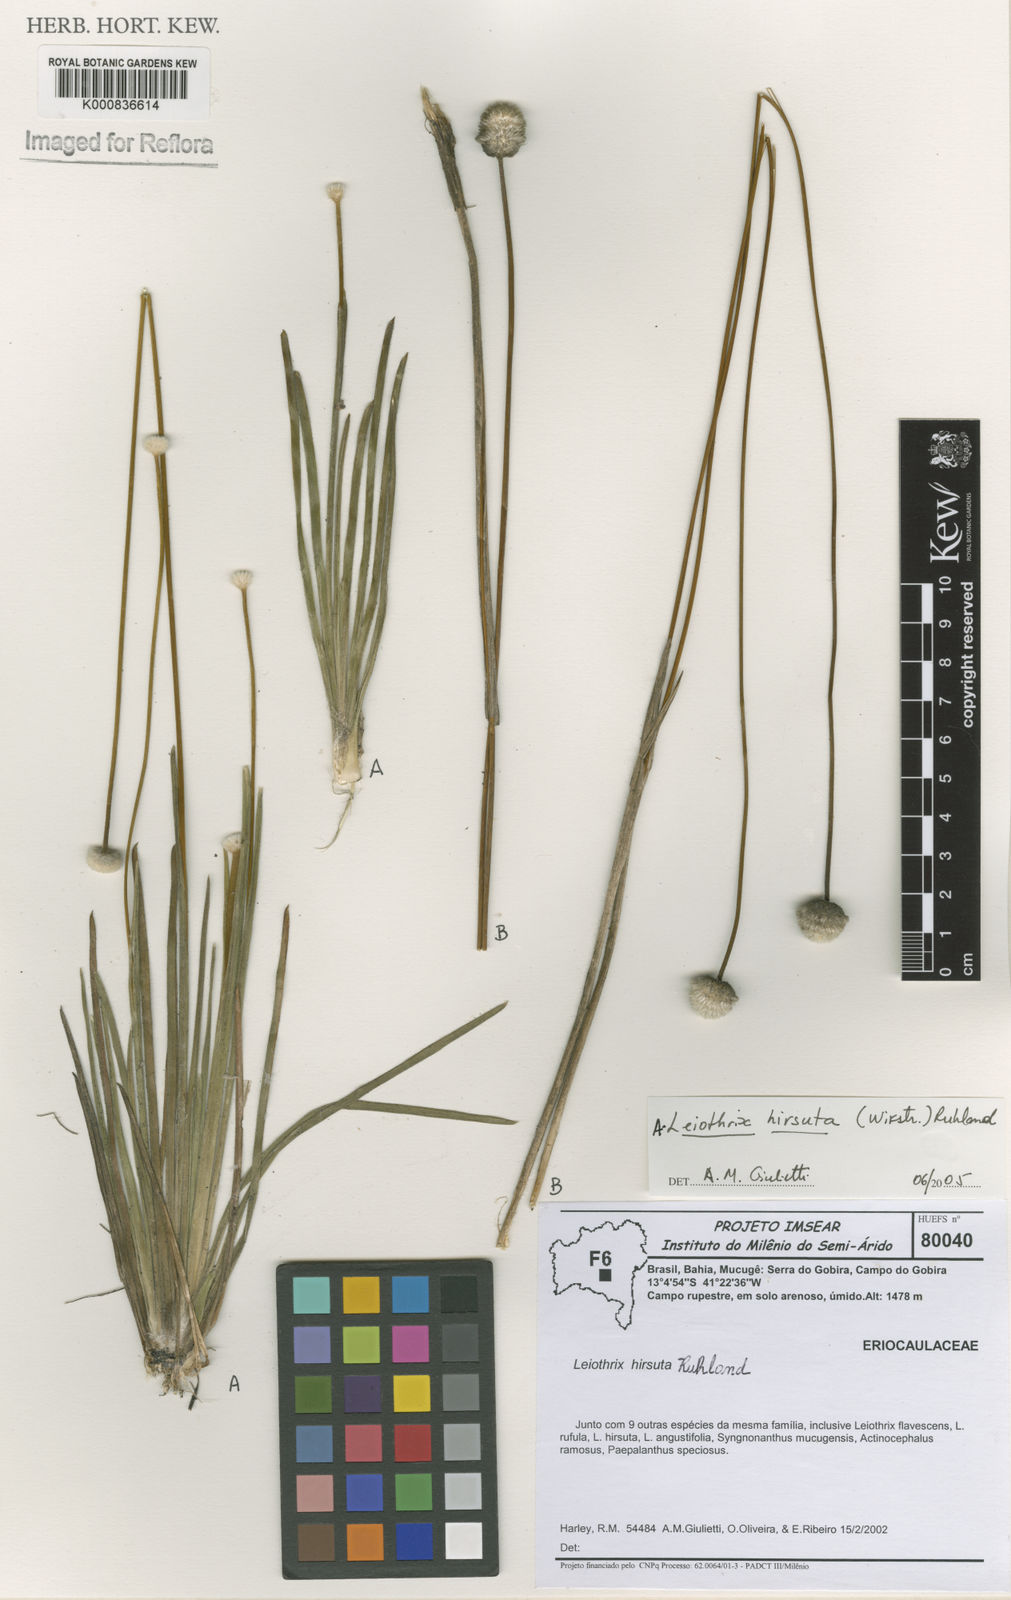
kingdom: Plantae
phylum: Tracheophyta
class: Liliopsida
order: Poales
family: Eriocaulaceae
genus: Leiothrix
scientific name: Leiothrix hirsuta
